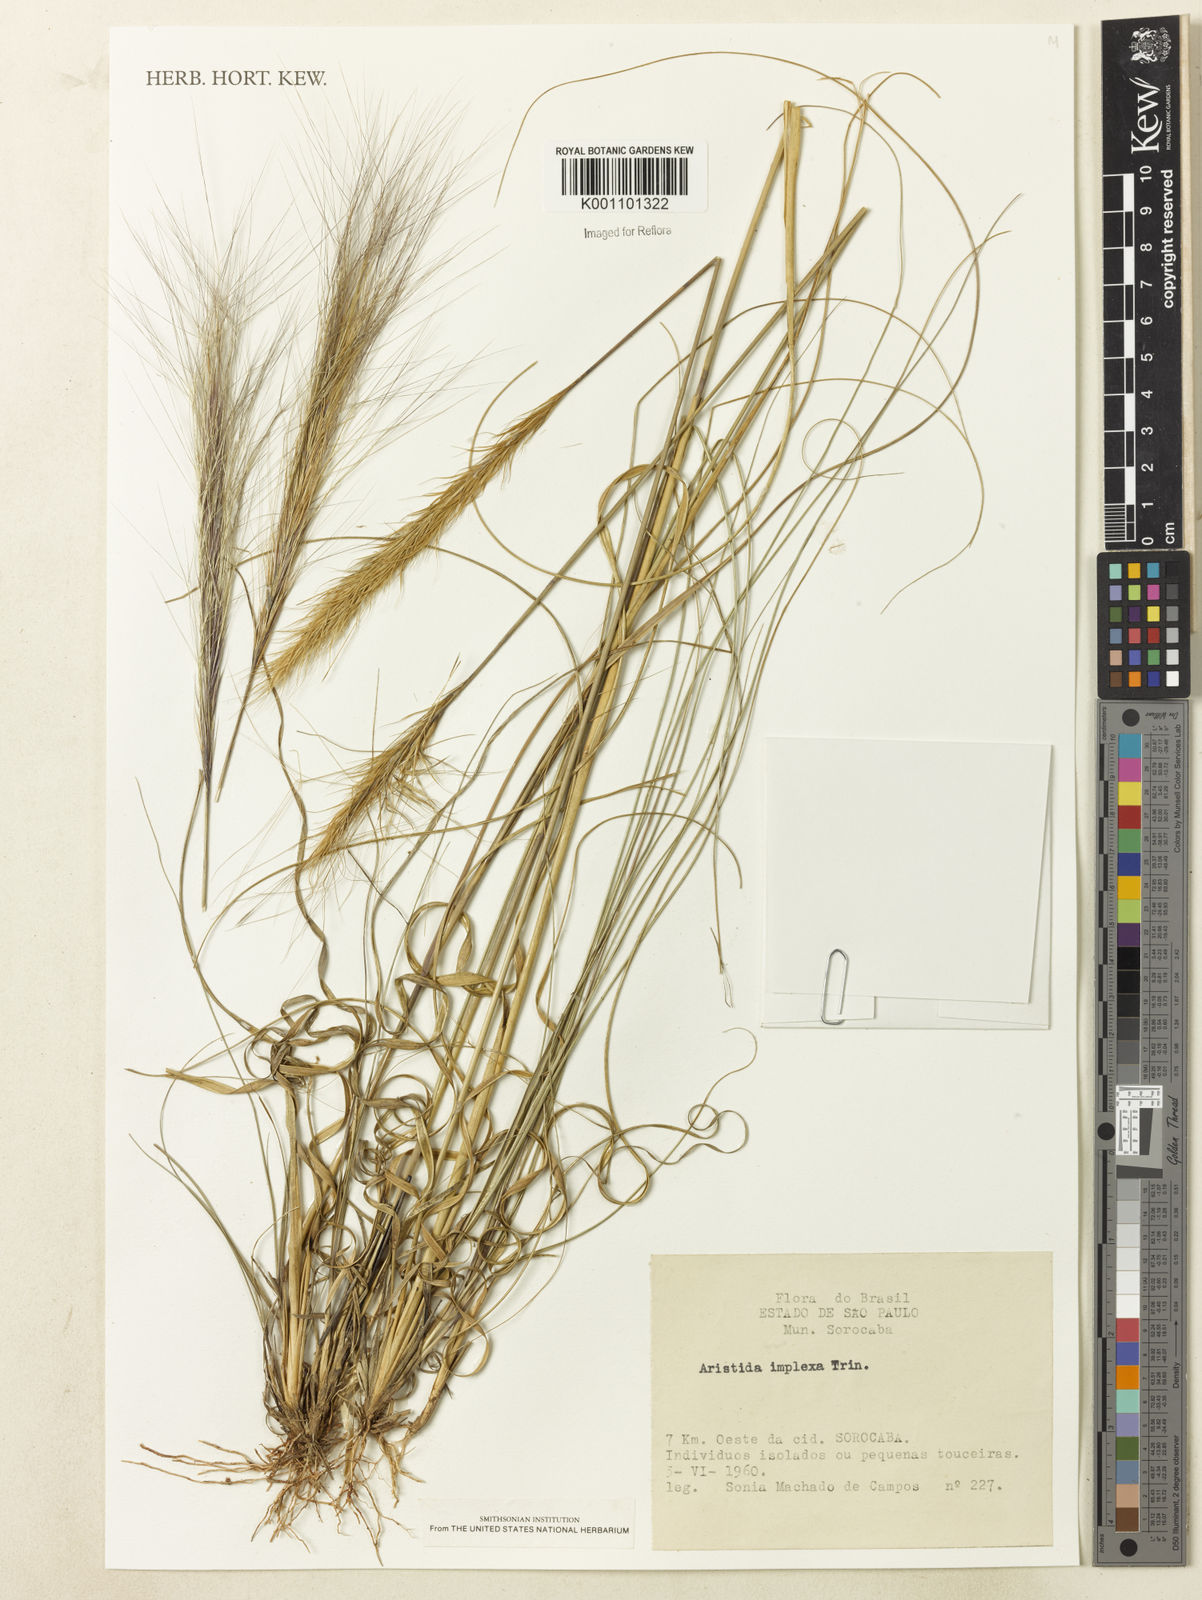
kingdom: Plantae
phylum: Tracheophyta
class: Liliopsida
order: Poales
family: Poaceae
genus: Aristida
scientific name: Aristida megapotamica
